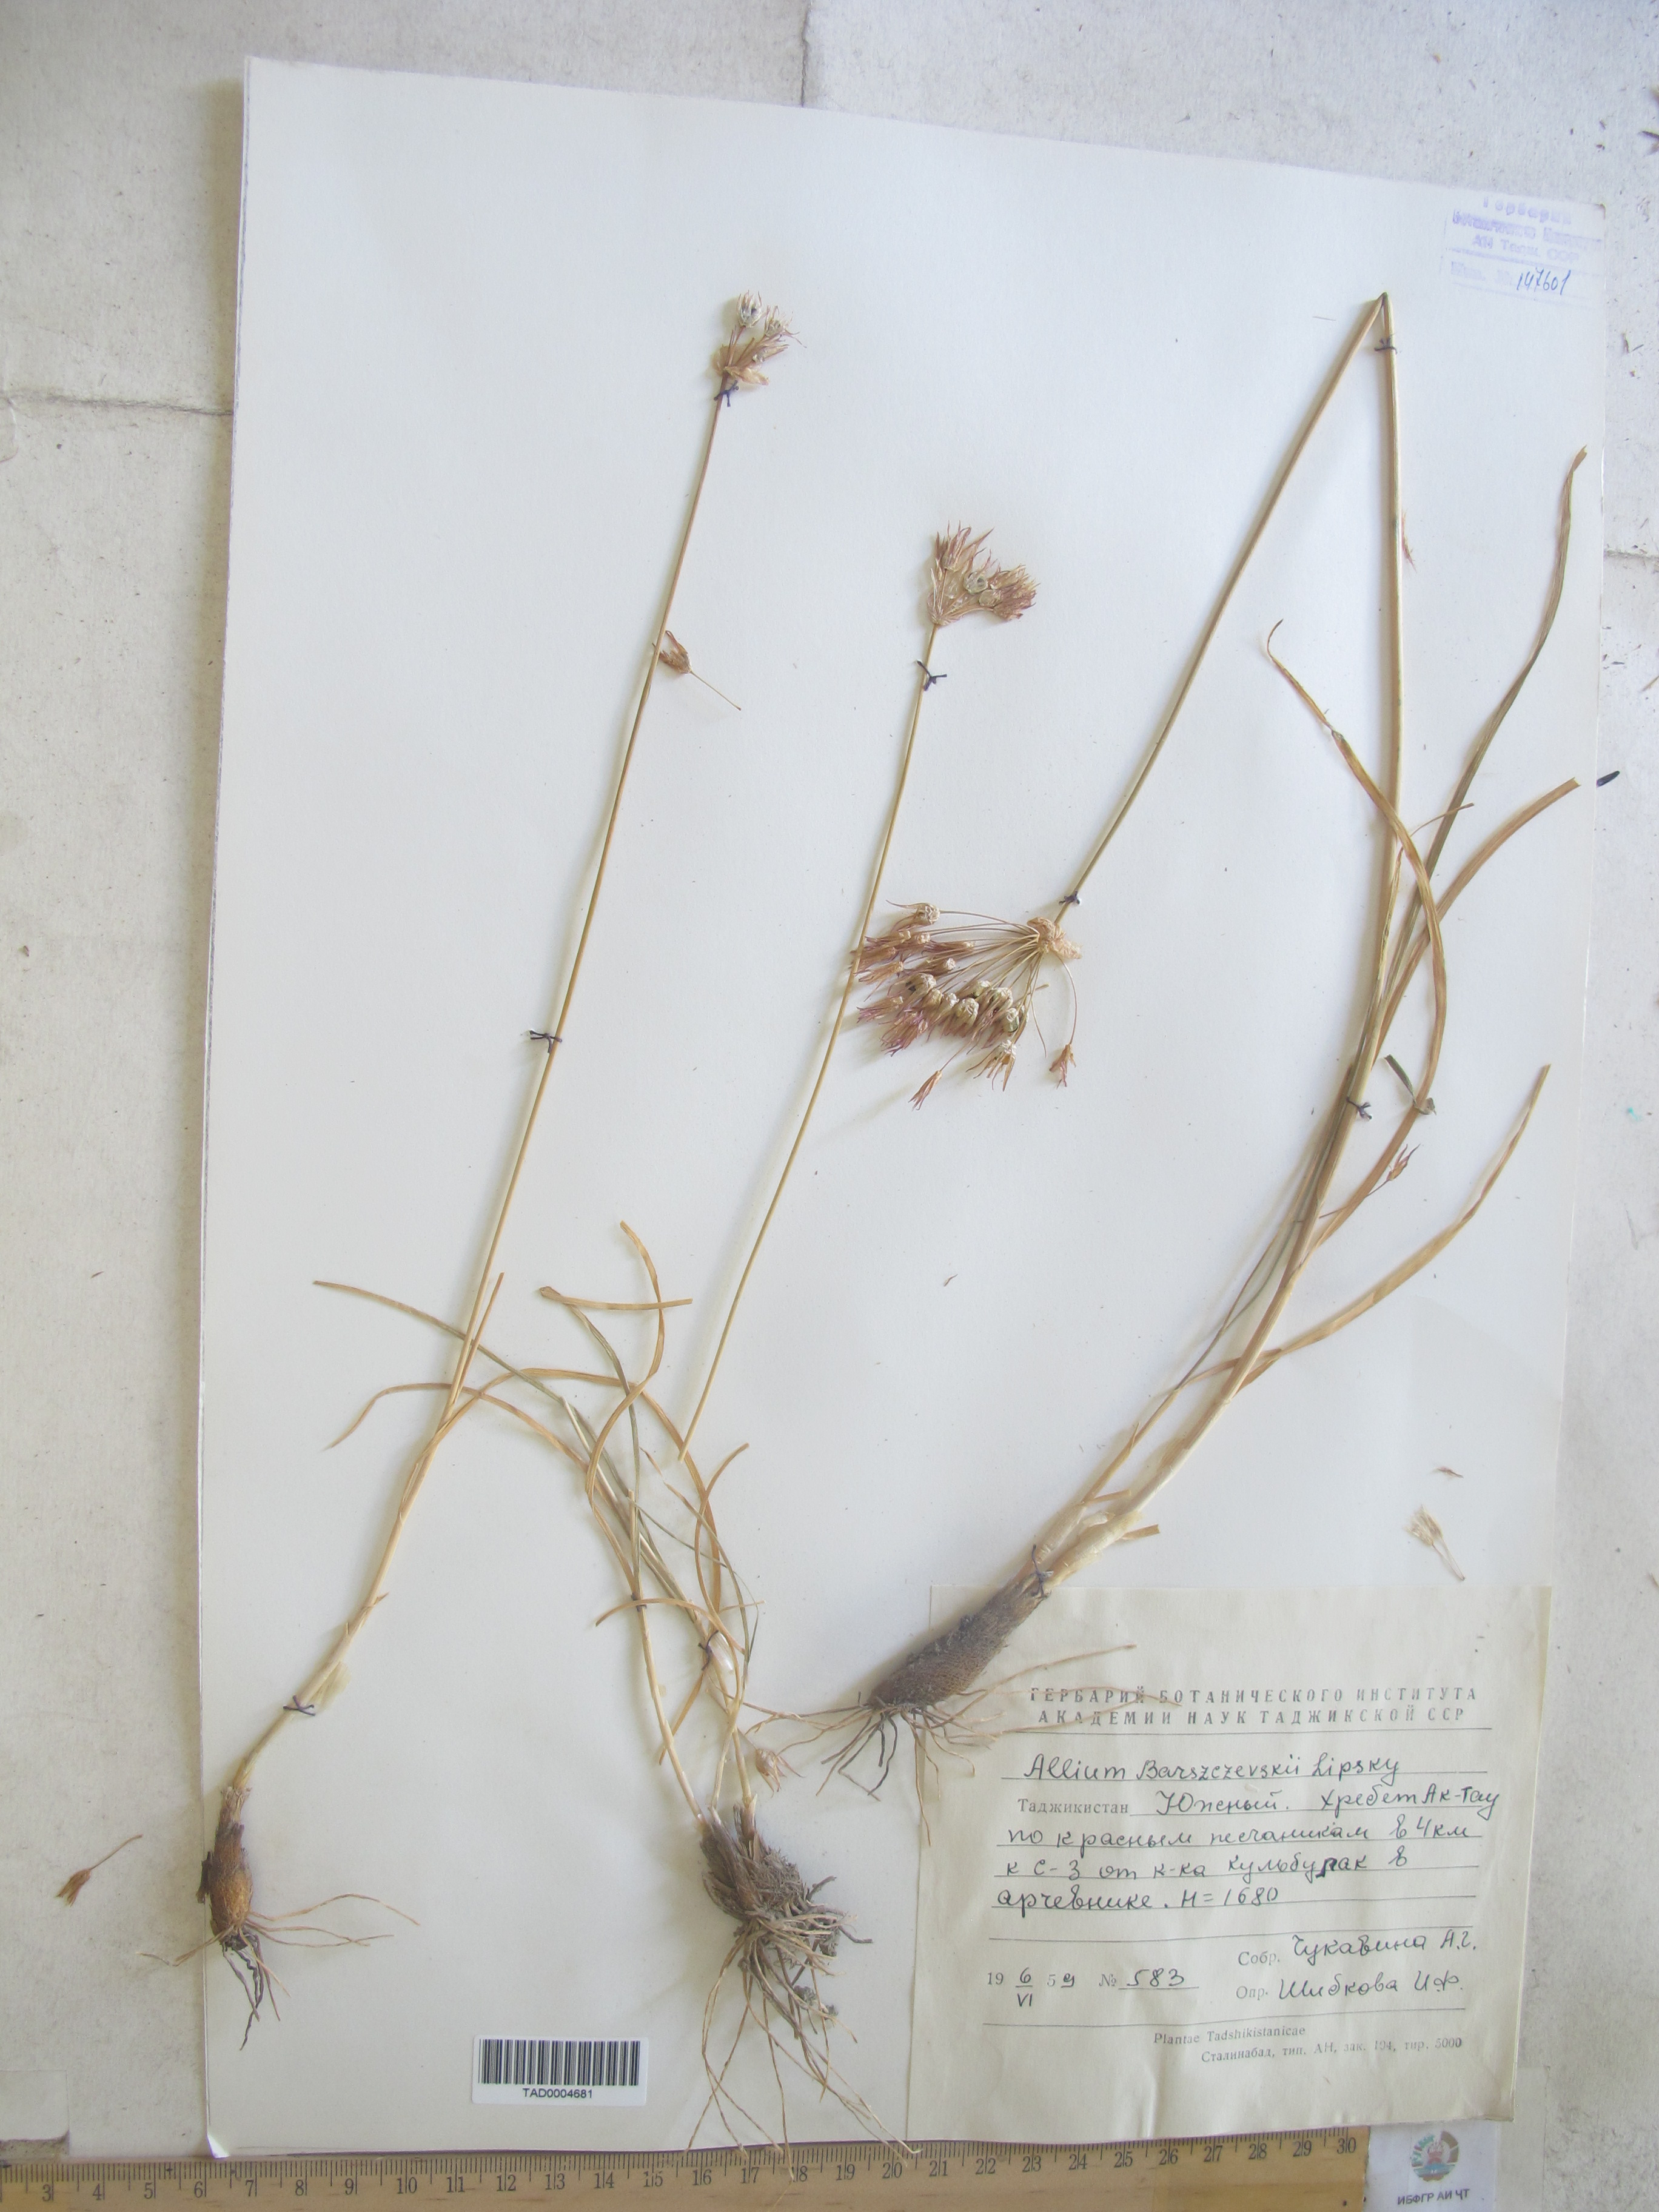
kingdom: Plantae
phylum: Tracheophyta
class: Liliopsida
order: Asparagales
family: Amaryllidaceae
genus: Allium
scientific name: Allium barsczewskii
